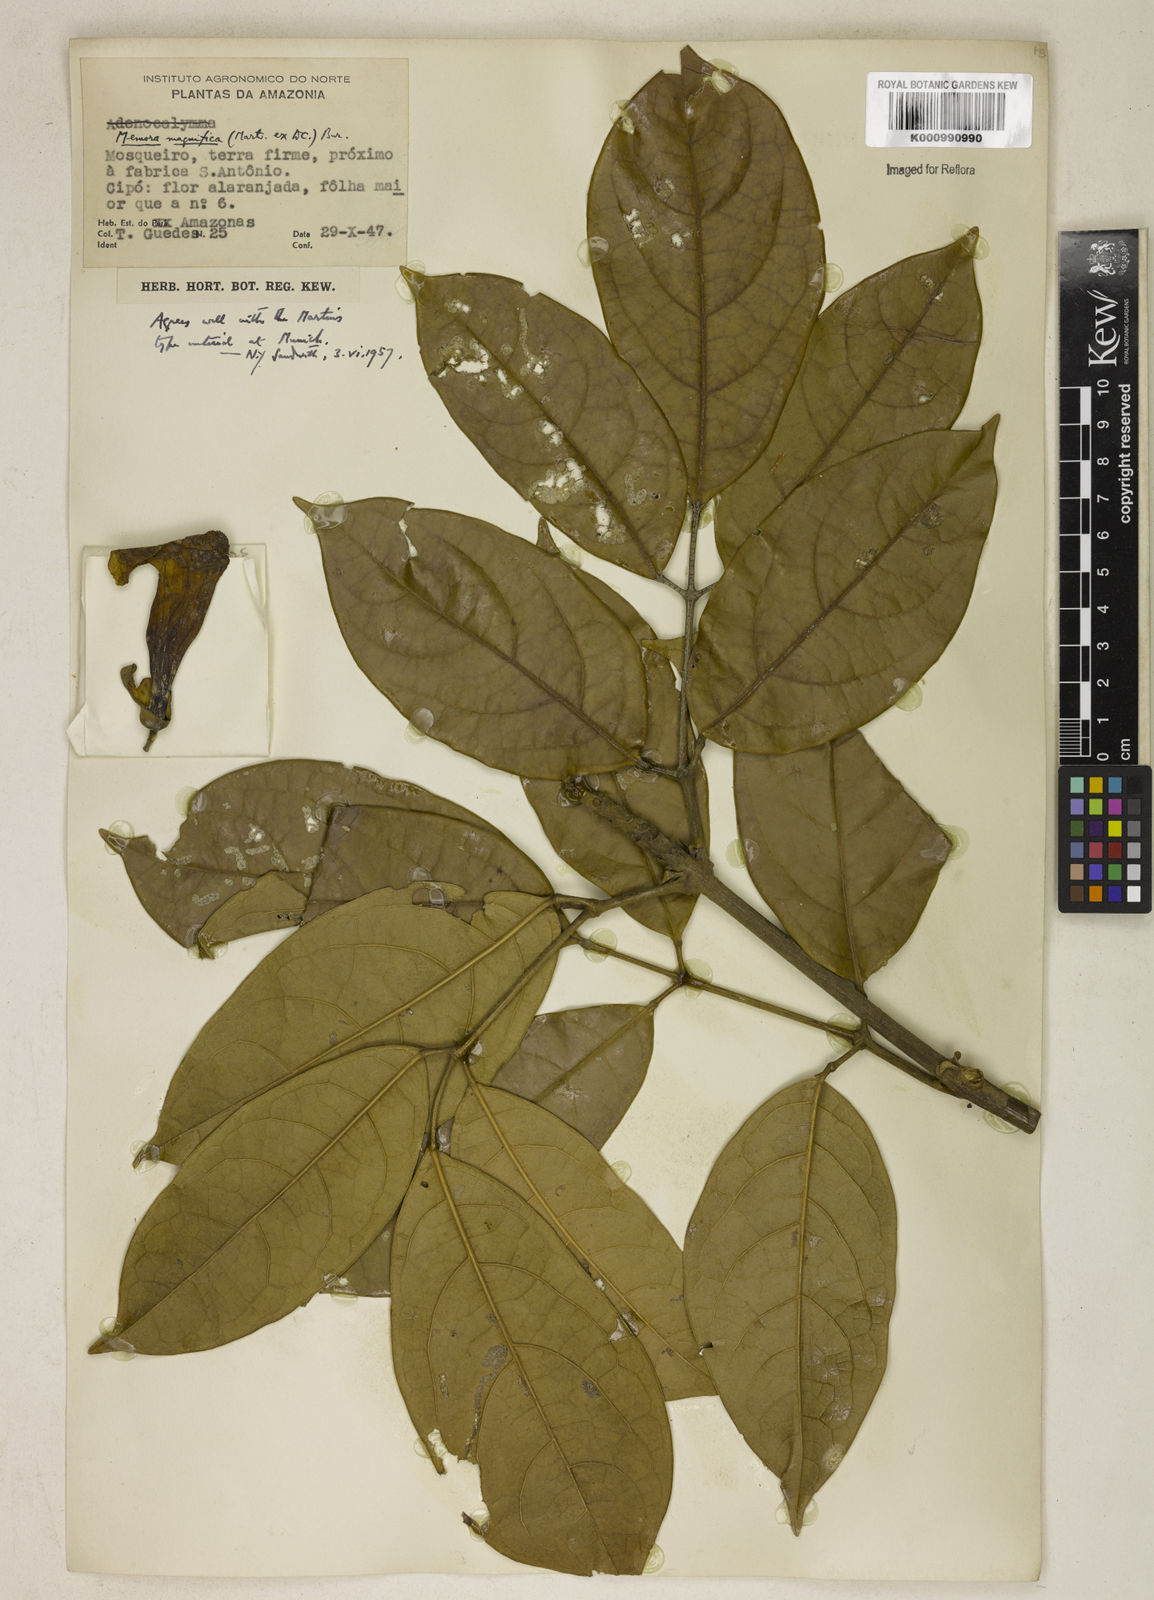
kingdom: Plantae
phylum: Tracheophyta
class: Magnoliopsida
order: Lamiales
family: Bignoniaceae
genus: Adenocalymma
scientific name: Adenocalymma magnificum
